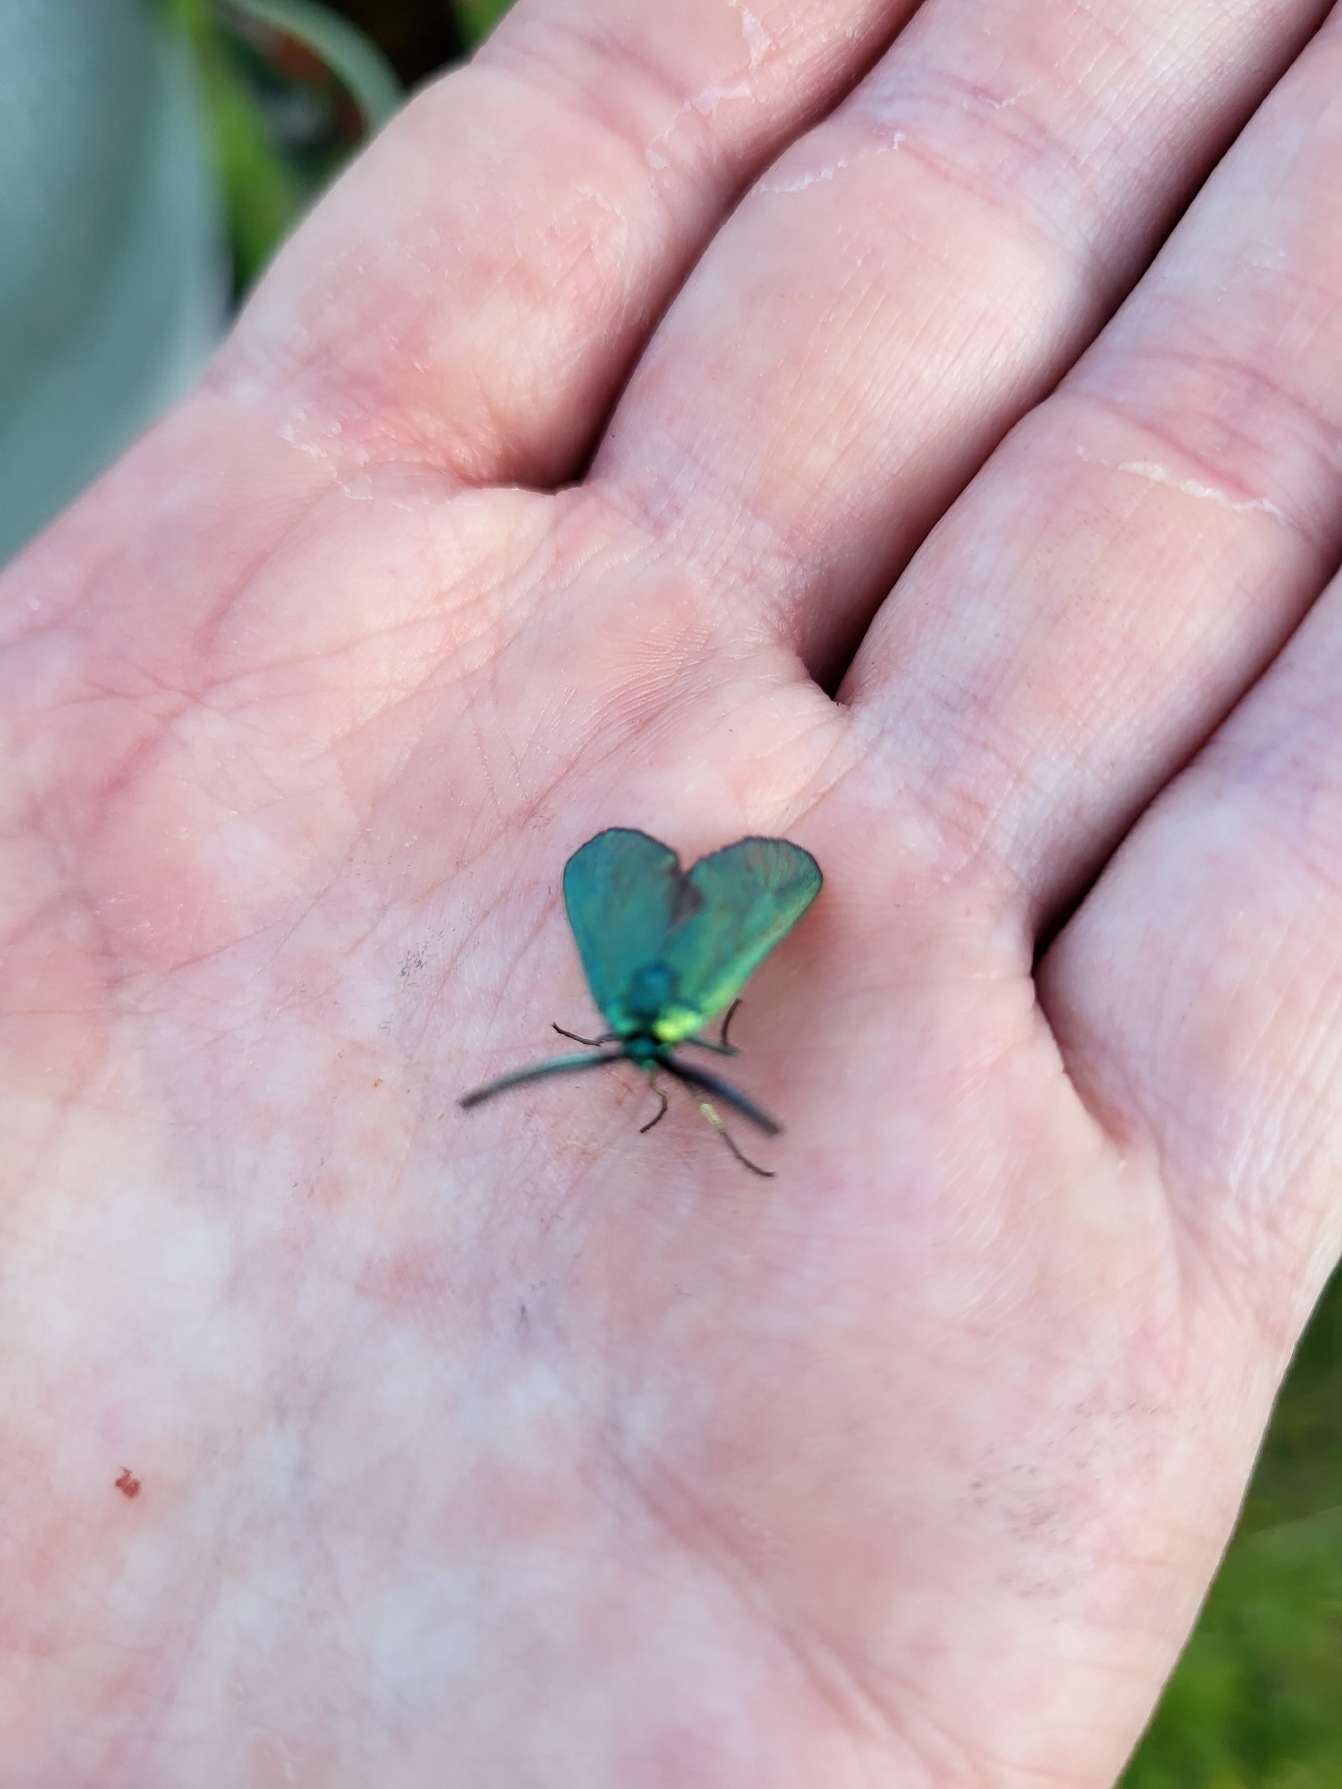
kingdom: Animalia
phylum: Arthropoda
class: Insecta
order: Lepidoptera
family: Zygaenidae
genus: Adscita
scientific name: Adscita statices
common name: Metalvinge
